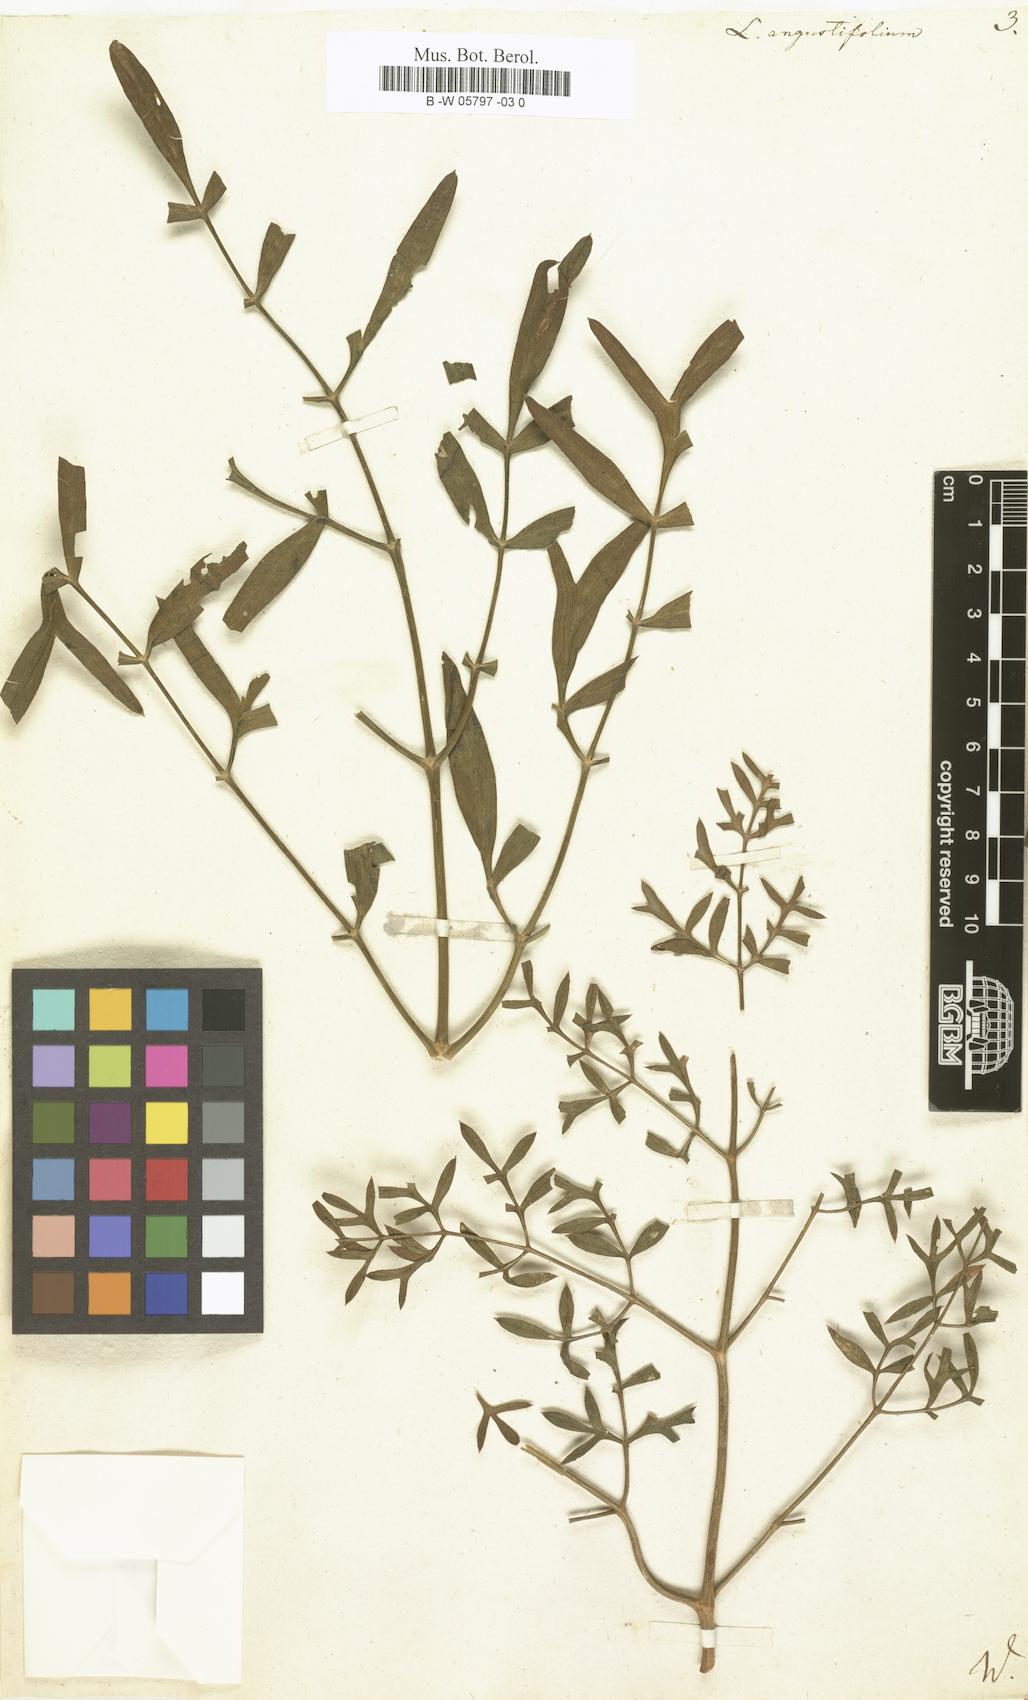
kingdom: Plantae
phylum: Tracheophyta
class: Magnoliopsida
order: Apiales
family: Apiaceae
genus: Laserpitium
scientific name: Laserpitium
